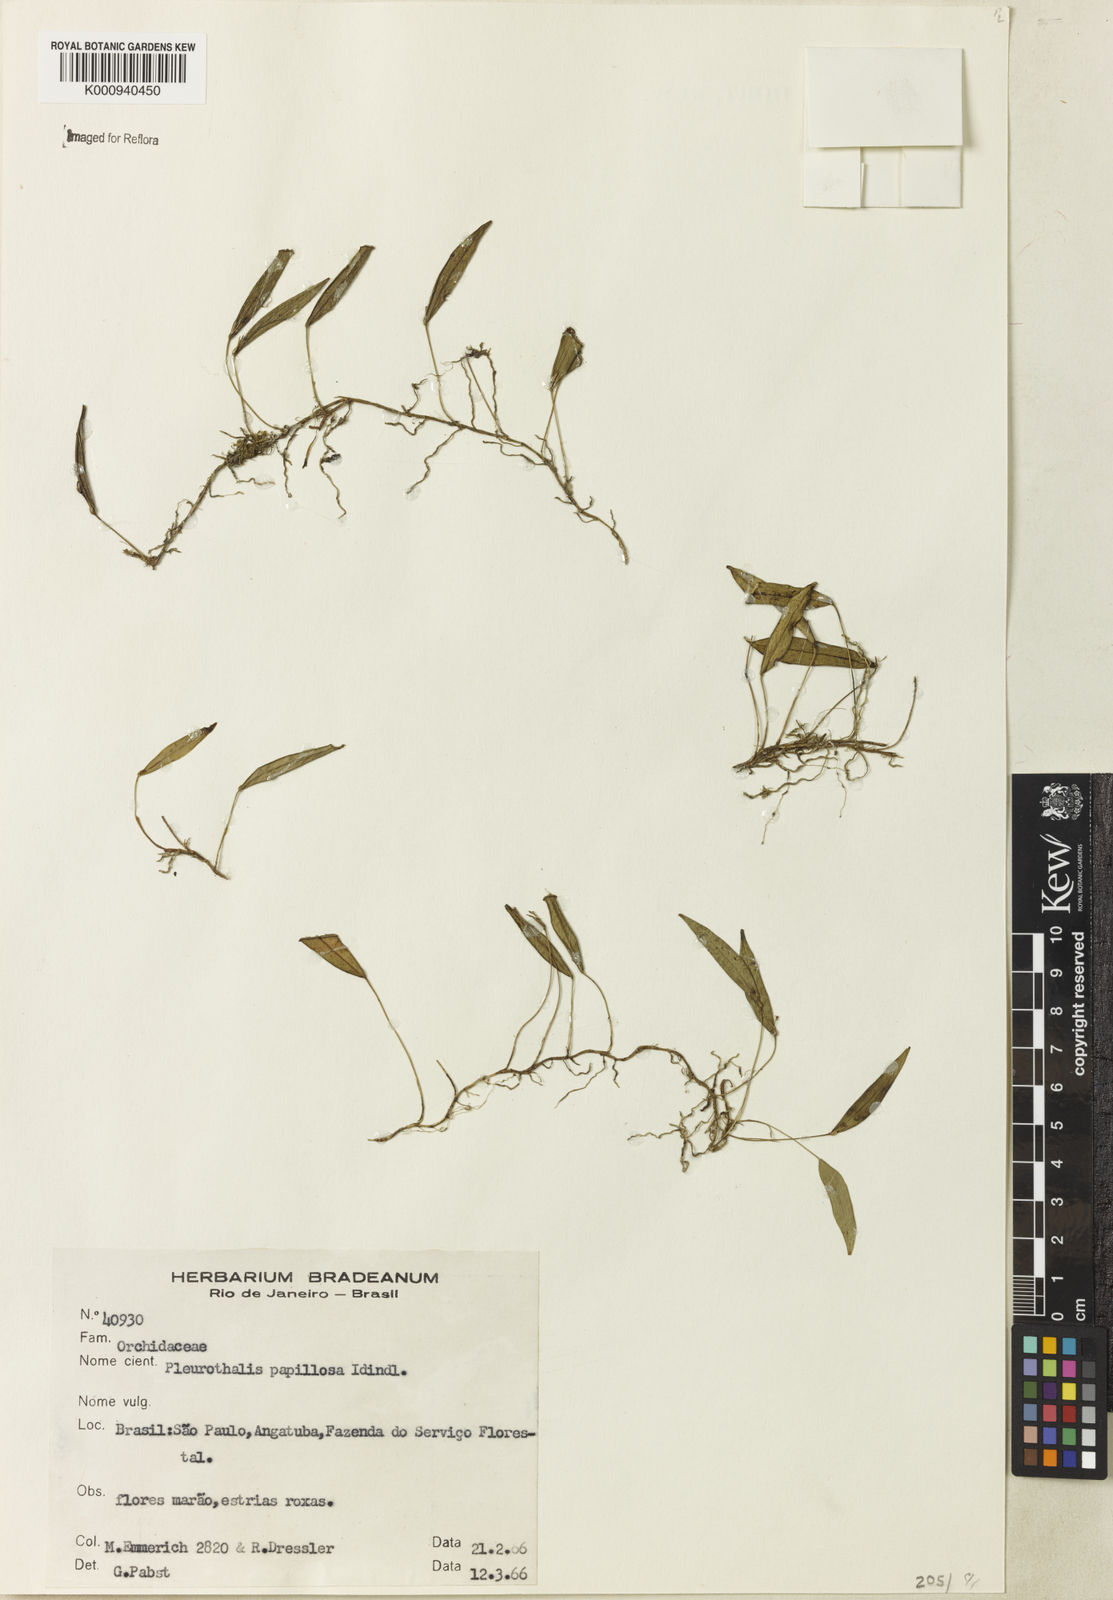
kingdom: Plantae
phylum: Tracheophyta
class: Liliopsida
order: Asparagales
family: Orchidaceae
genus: Acianthera
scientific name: Acianthera papillosa
